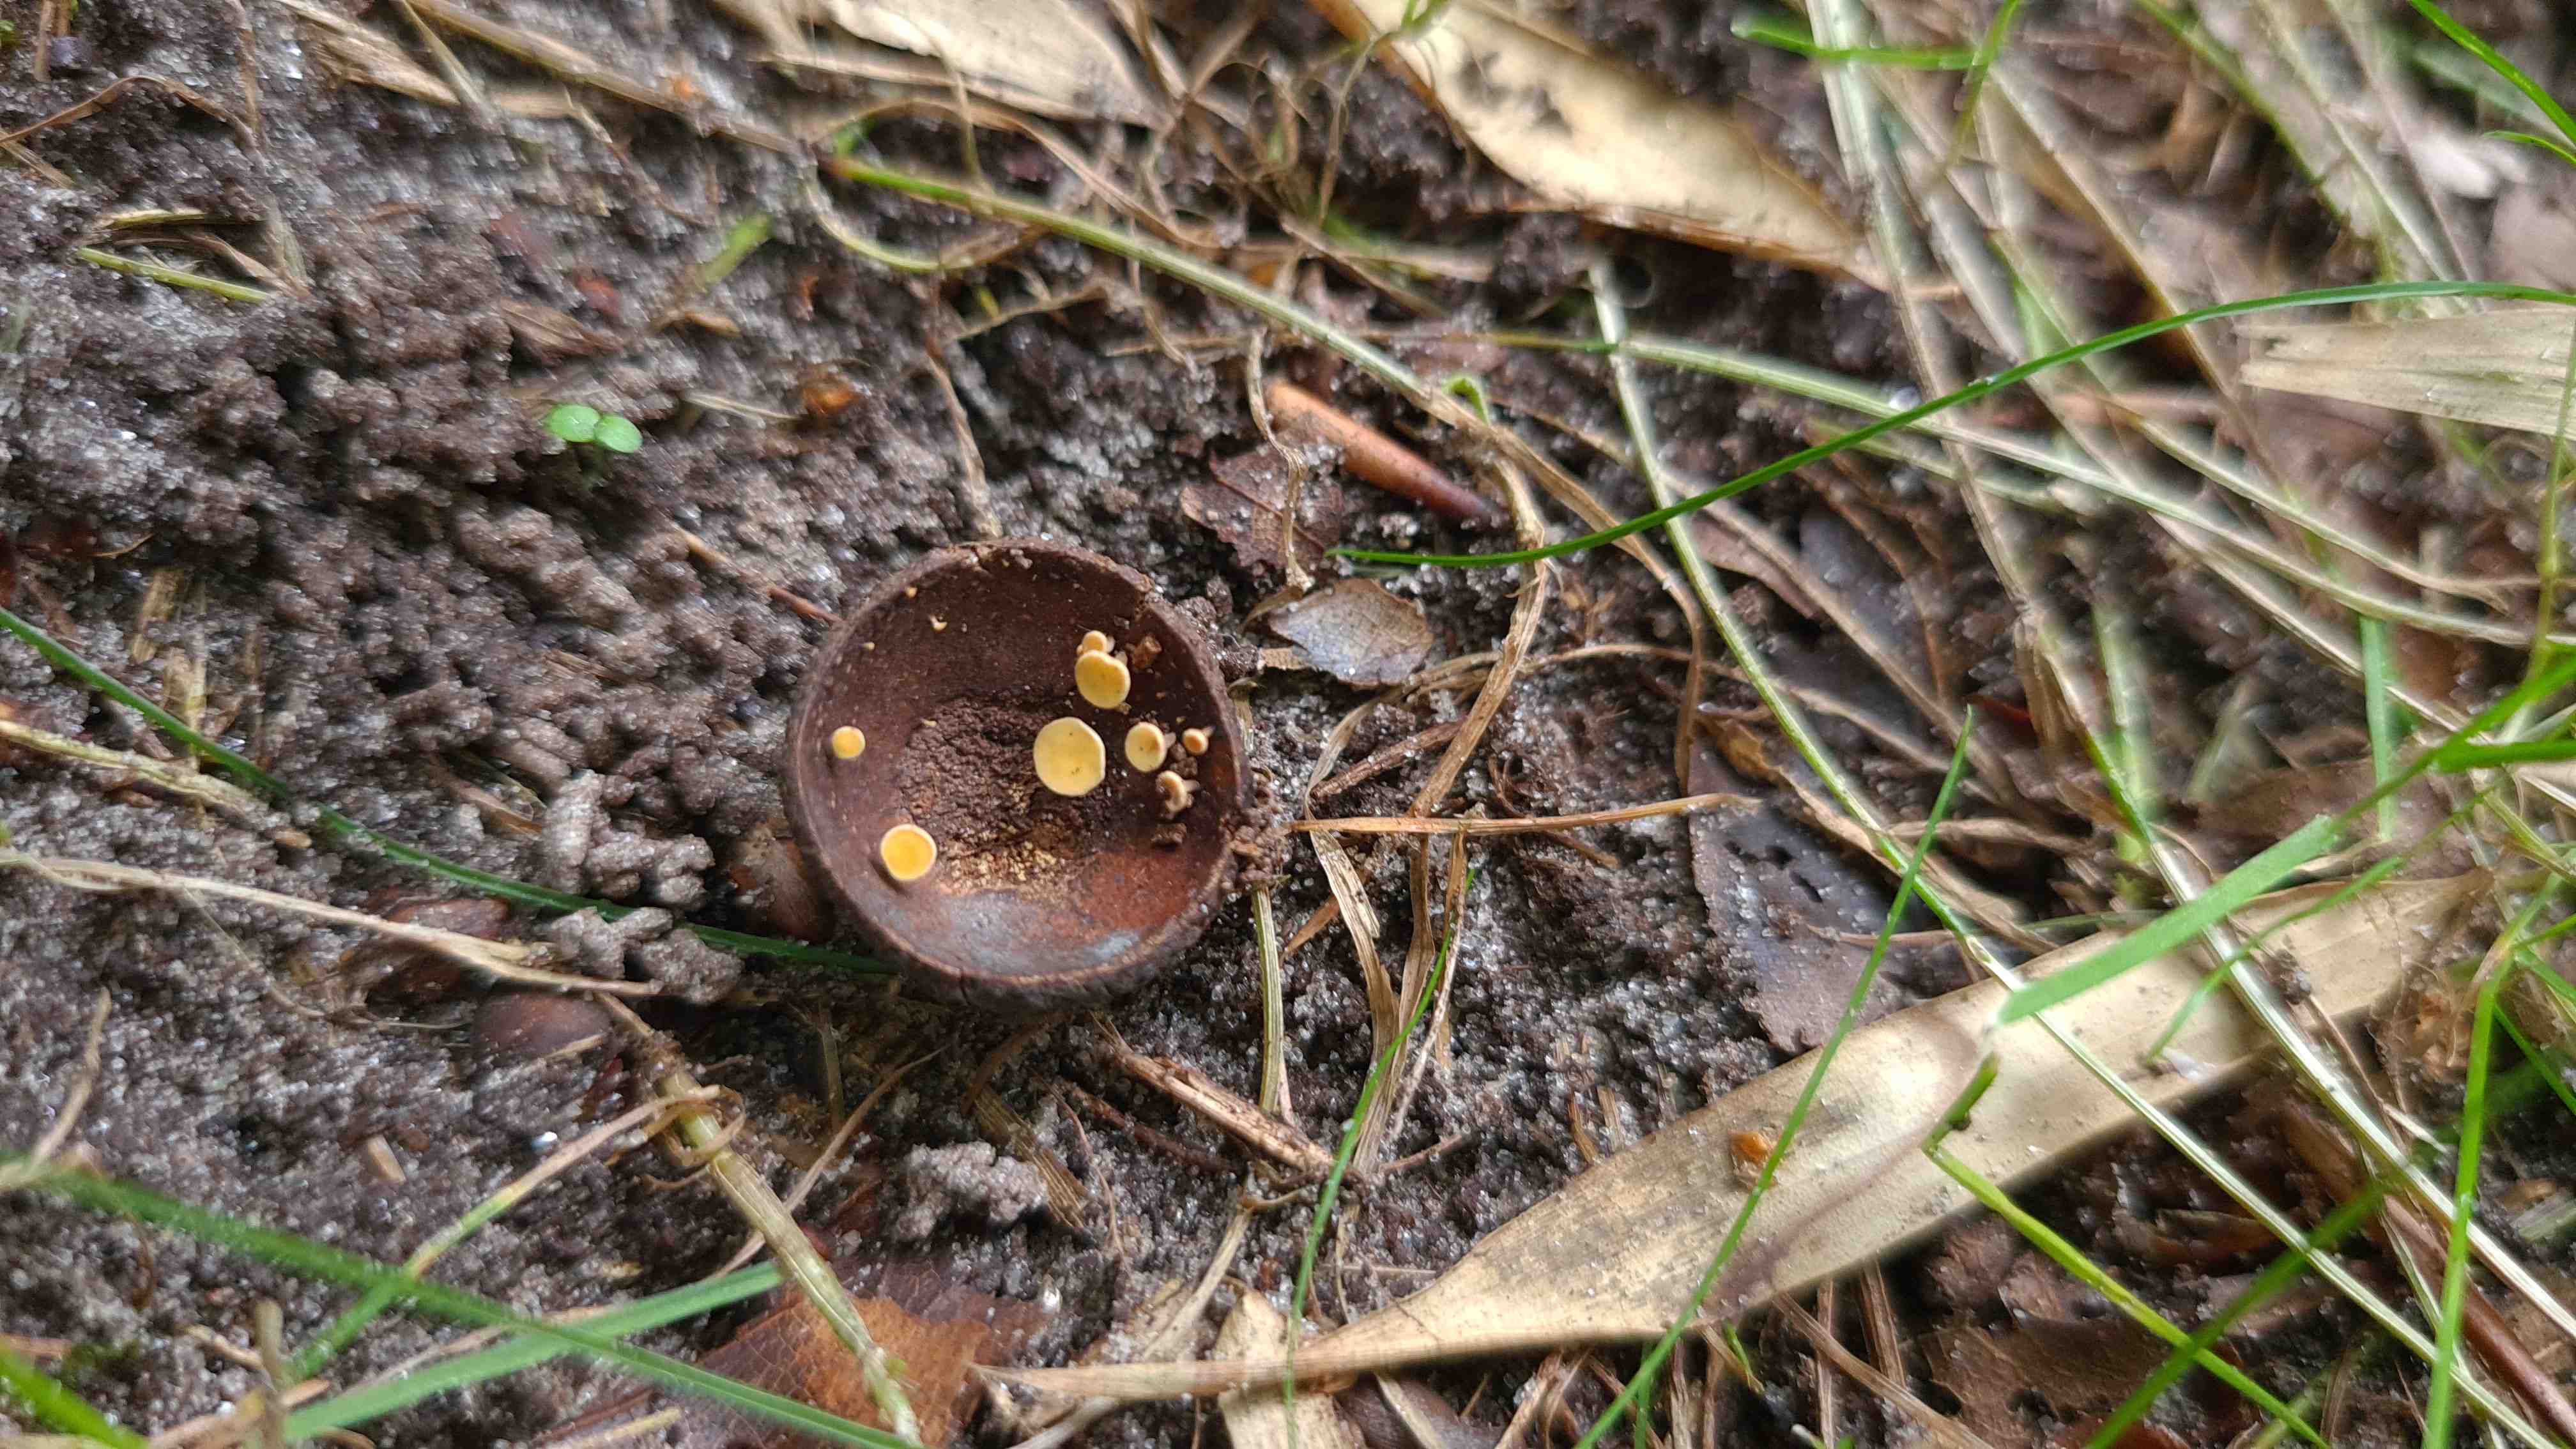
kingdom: Fungi
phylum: Ascomycota
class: Leotiomycetes
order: Helotiales
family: Helotiaceae
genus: Hymenoscyphus
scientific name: Hymenoscyphus
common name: stilkskive
